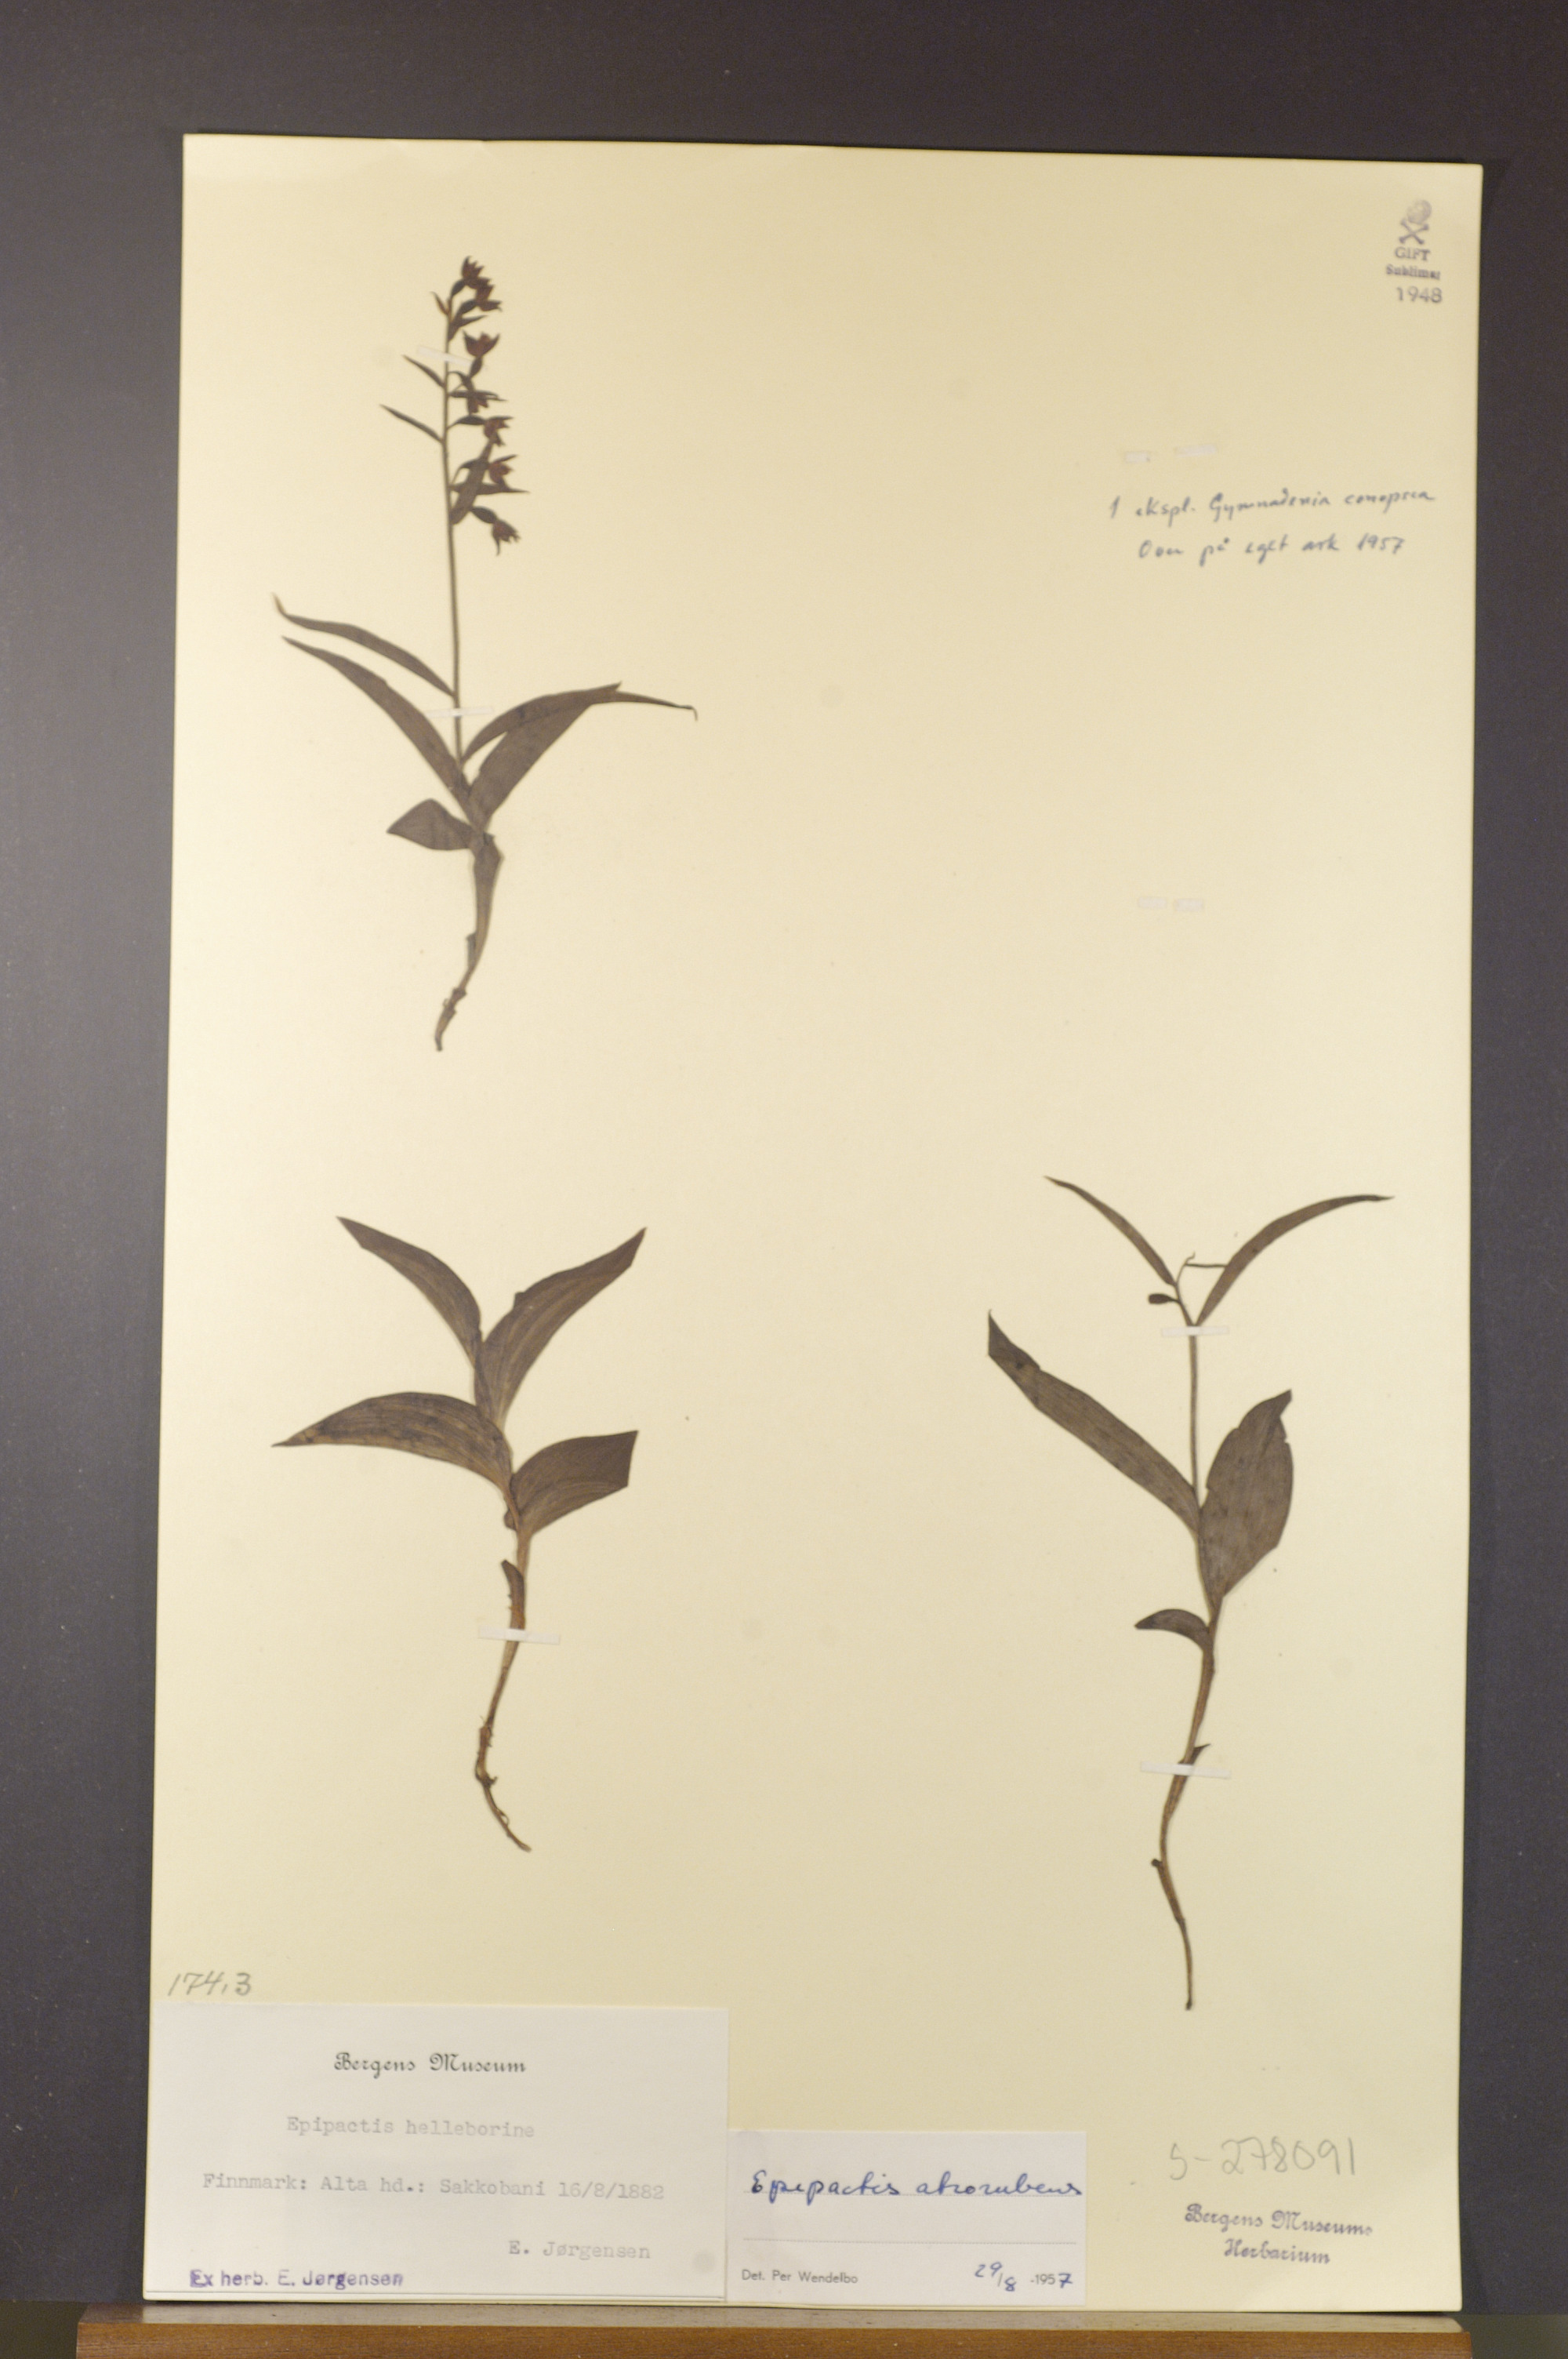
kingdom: Plantae
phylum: Tracheophyta
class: Liliopsida
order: Asparagales
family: Orchidaceae
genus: Epipactis
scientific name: Epipactis atrorubens
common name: Dark-red helleborine
